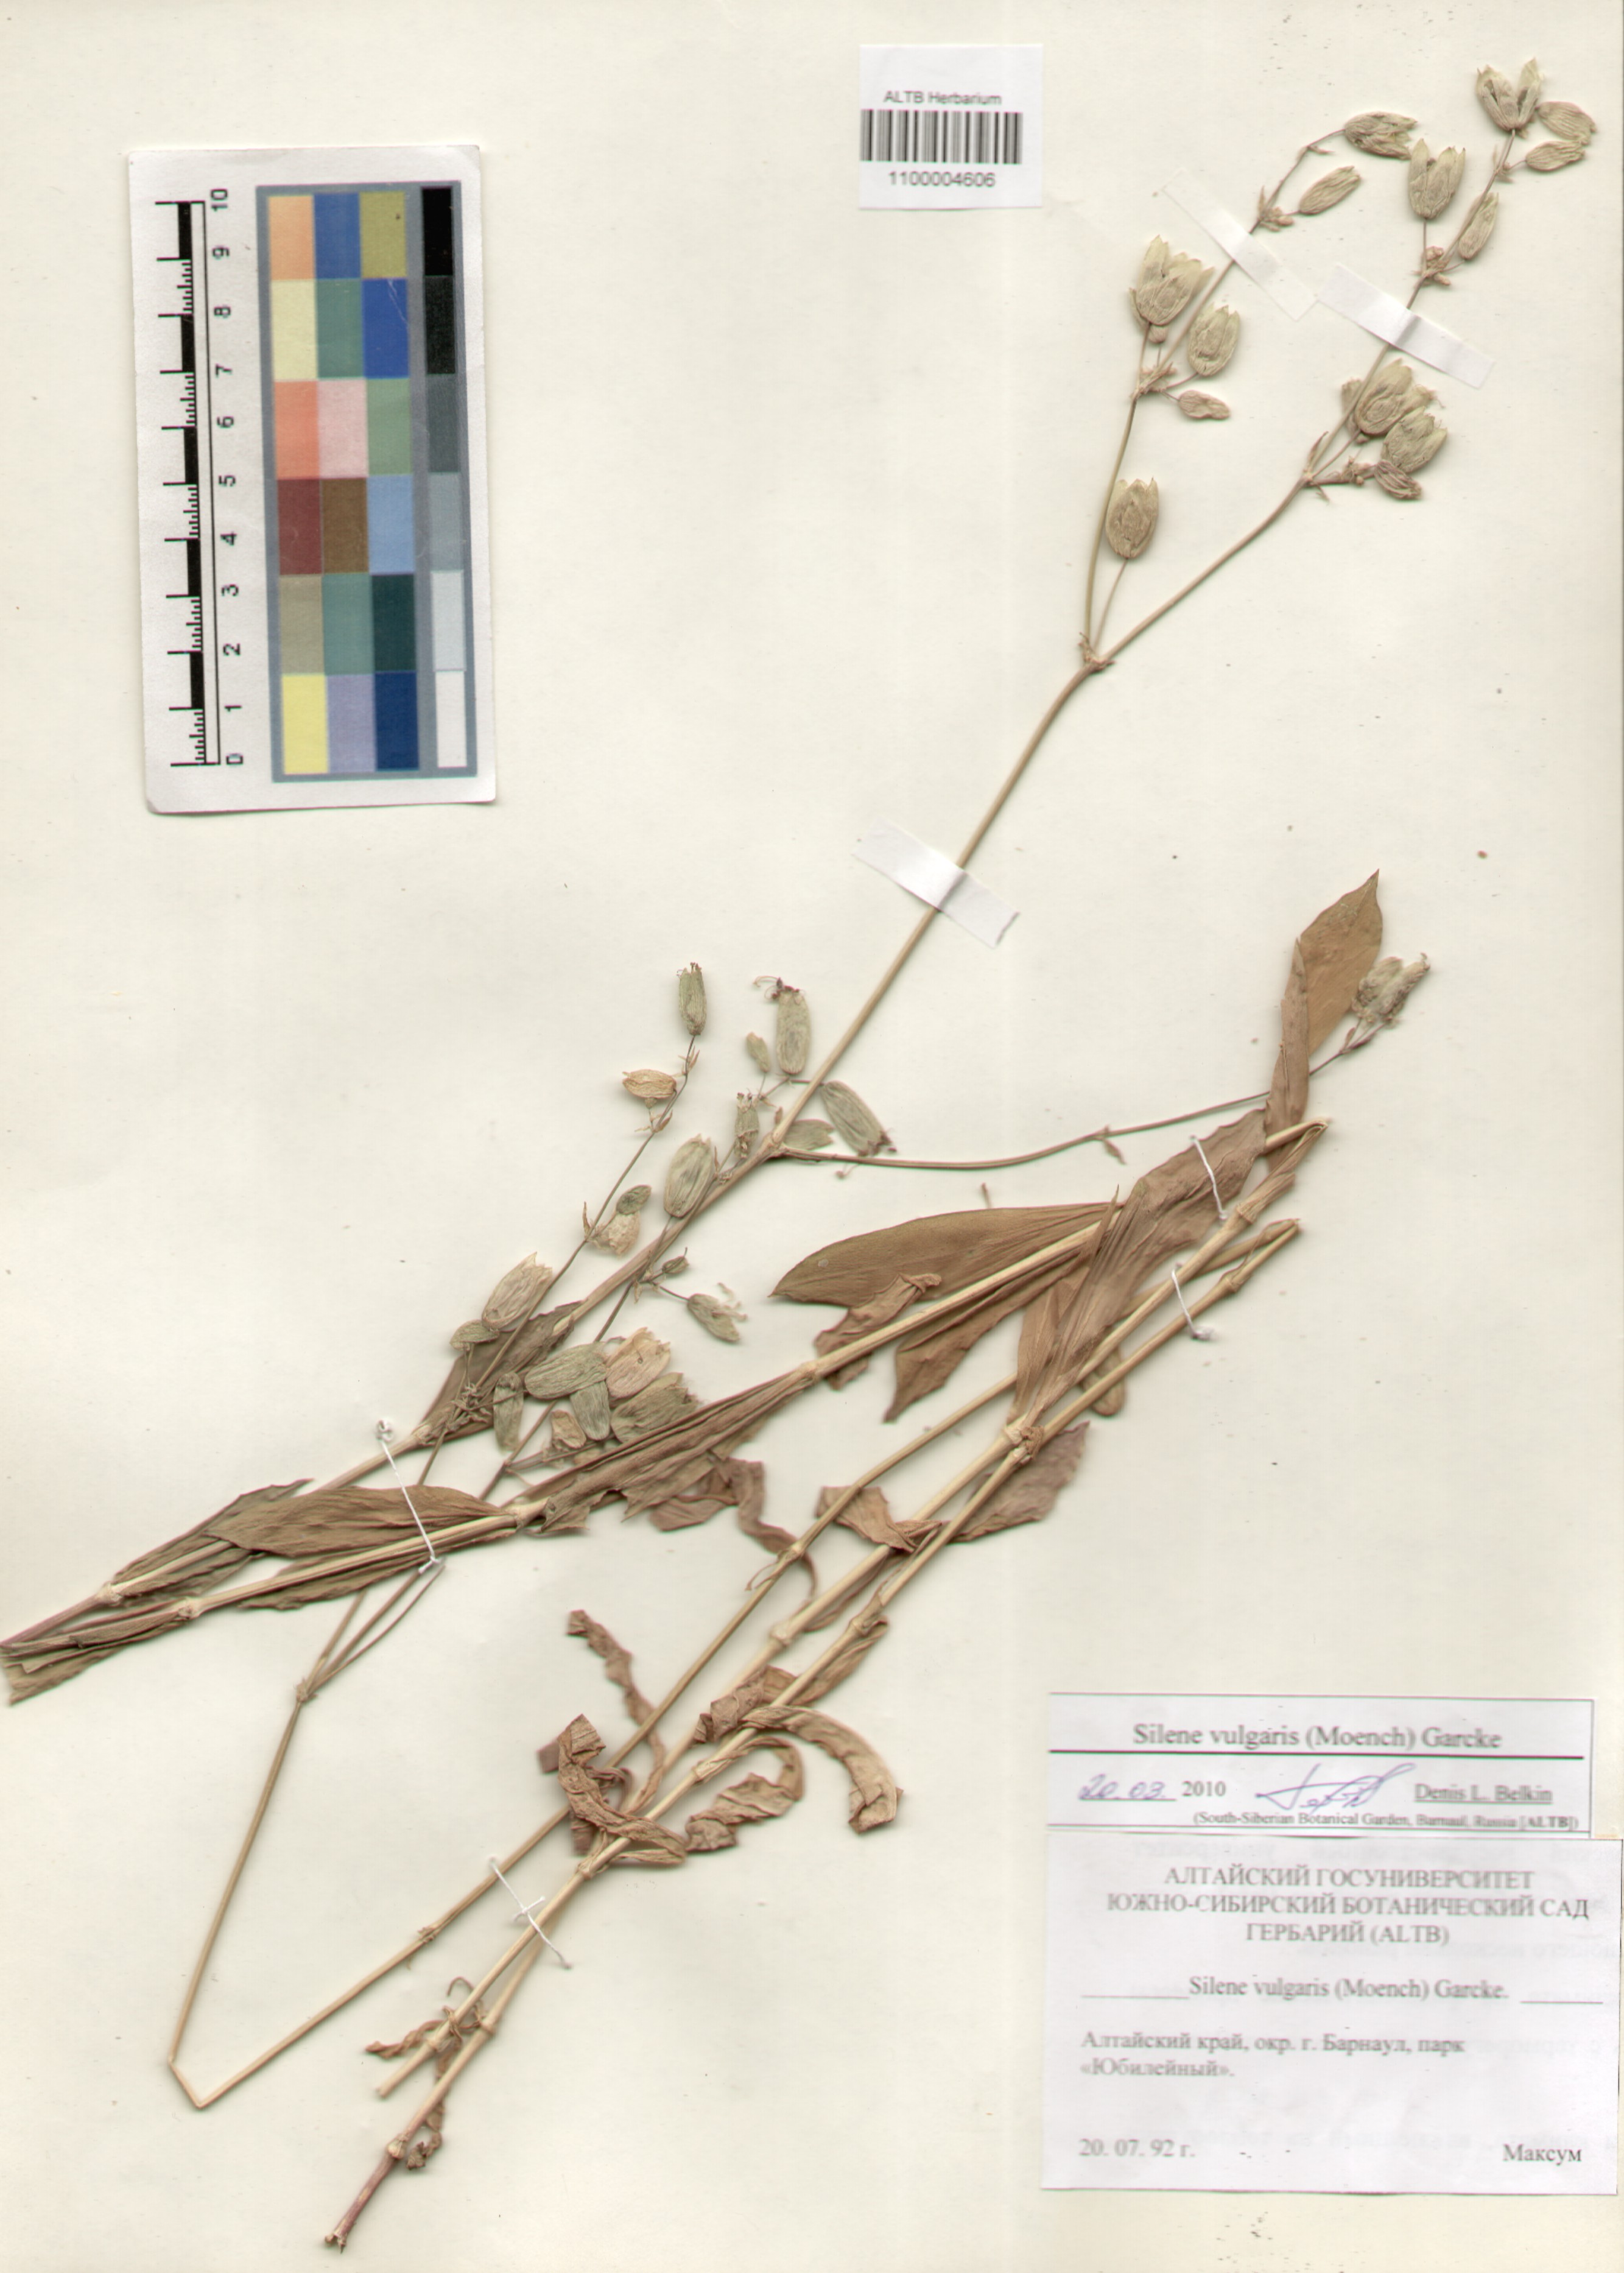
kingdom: Plantae
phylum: Tracheophyta
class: Magnoliopsida
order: Caryophyllales
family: Caryophyllaceae
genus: Silene
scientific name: Silene vulgaris
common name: Bladder campion
